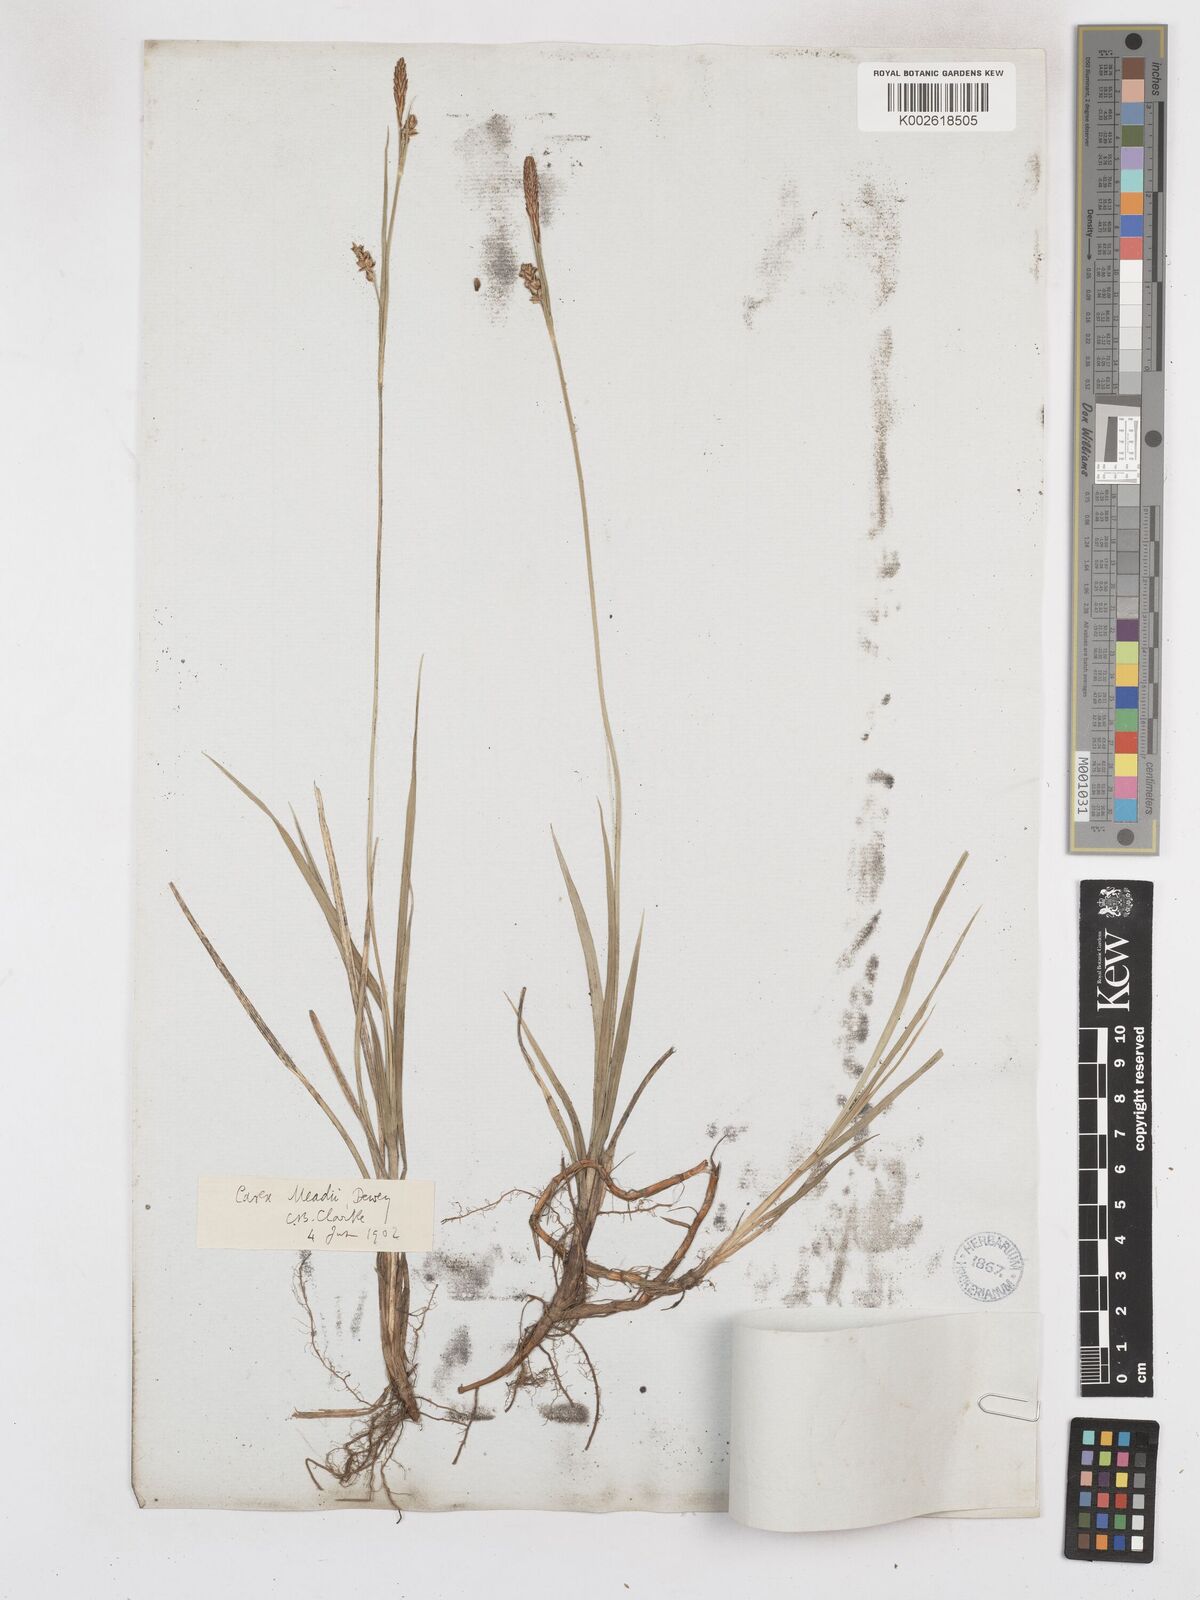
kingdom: Plantae
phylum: Tracheophyta
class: Liliopsida
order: Poales
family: Cyperaceae
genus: Carex
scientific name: Carex meadii
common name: Mead's sedge
